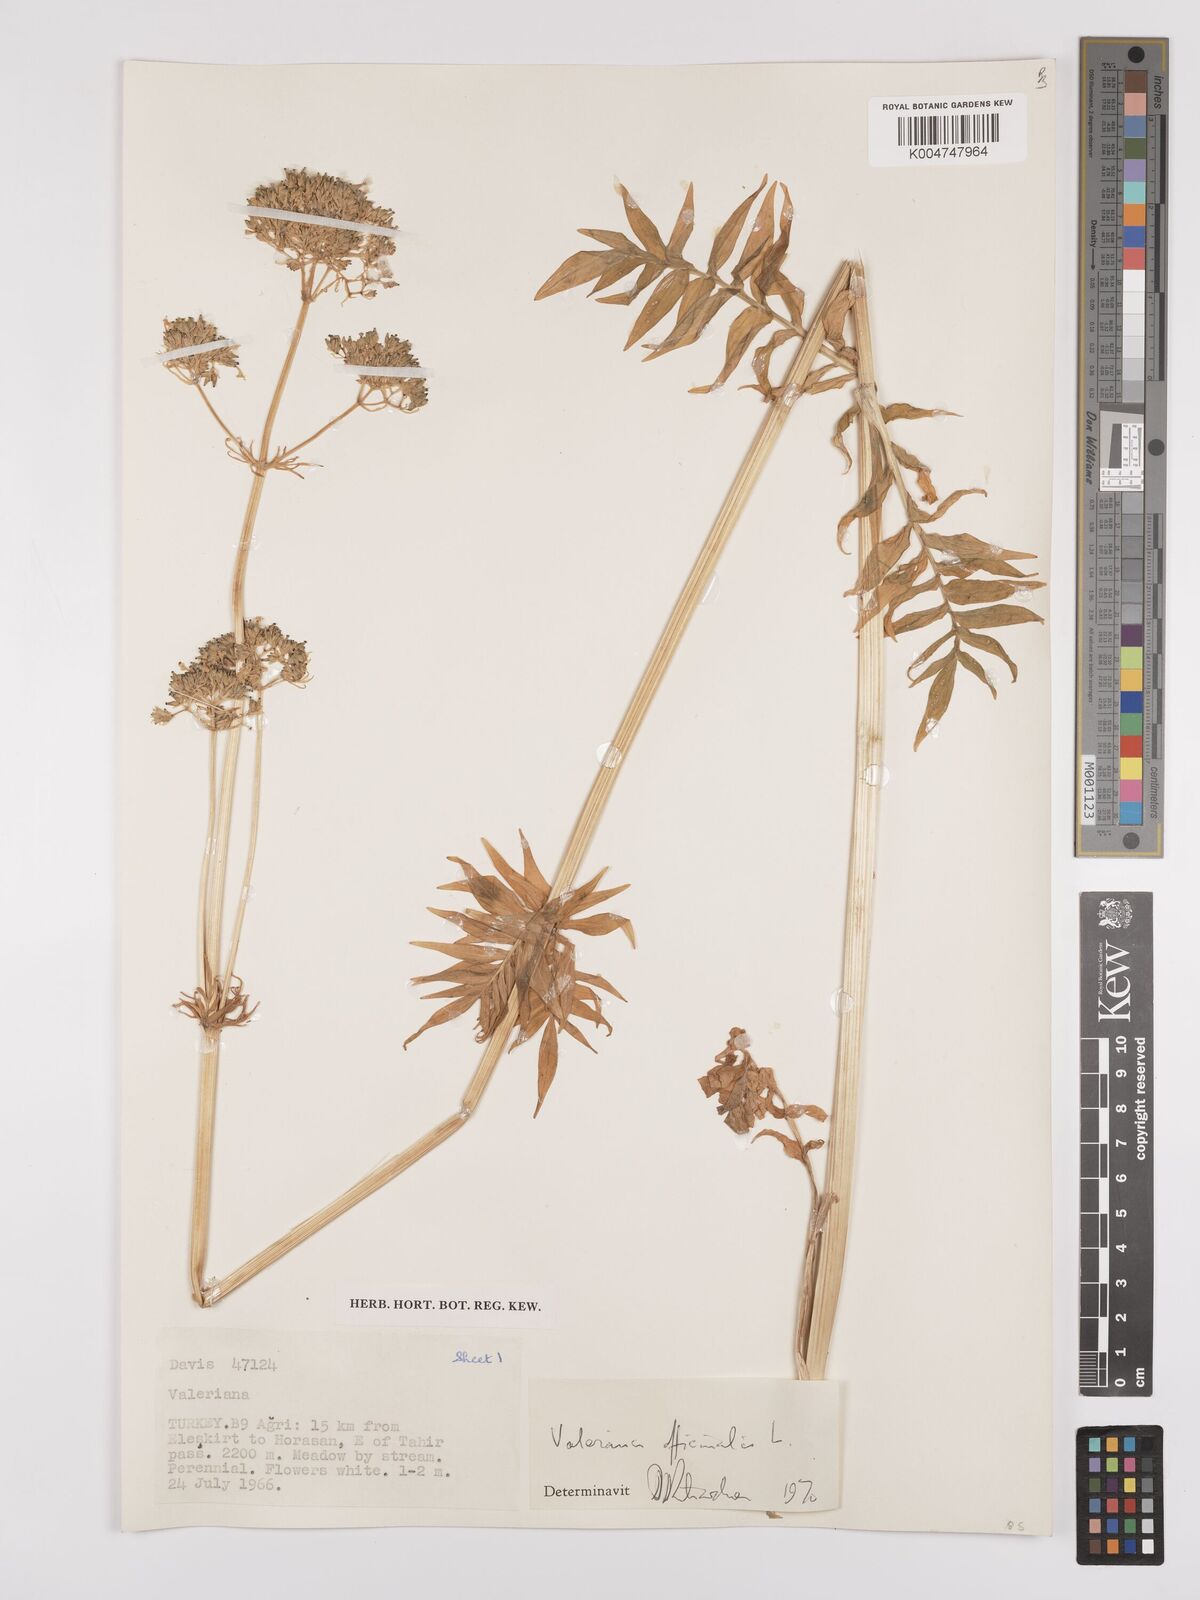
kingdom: Plantae
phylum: Tracheophyta
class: Magnoliopsida
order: Dipsacales
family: Caprifoliaceae
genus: Valeriana
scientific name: Valeriana officinalis
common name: Common valerian
